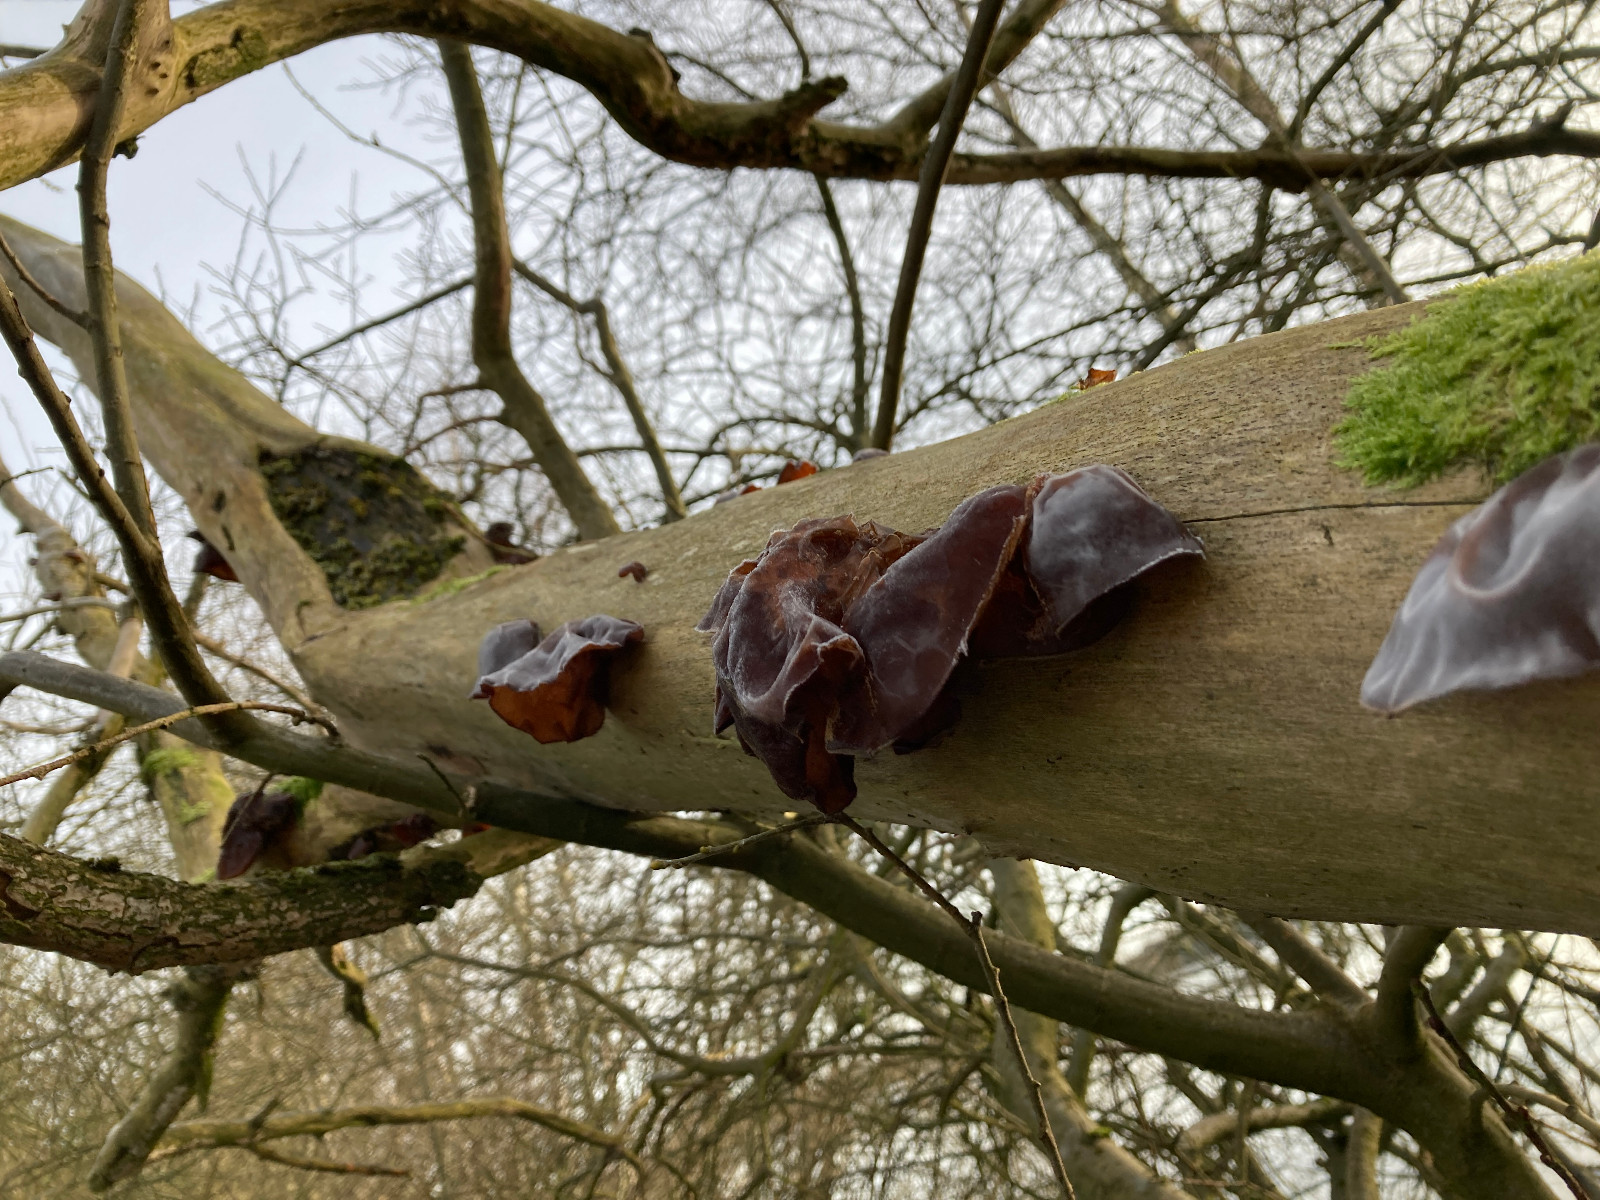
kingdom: Fungi
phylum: Basidiomycota
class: Agaricomycetes
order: Auriculariales
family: Auriculariaceae
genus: Auricularia
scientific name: Auricularia auricula-judae
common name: almindelig judasøre
